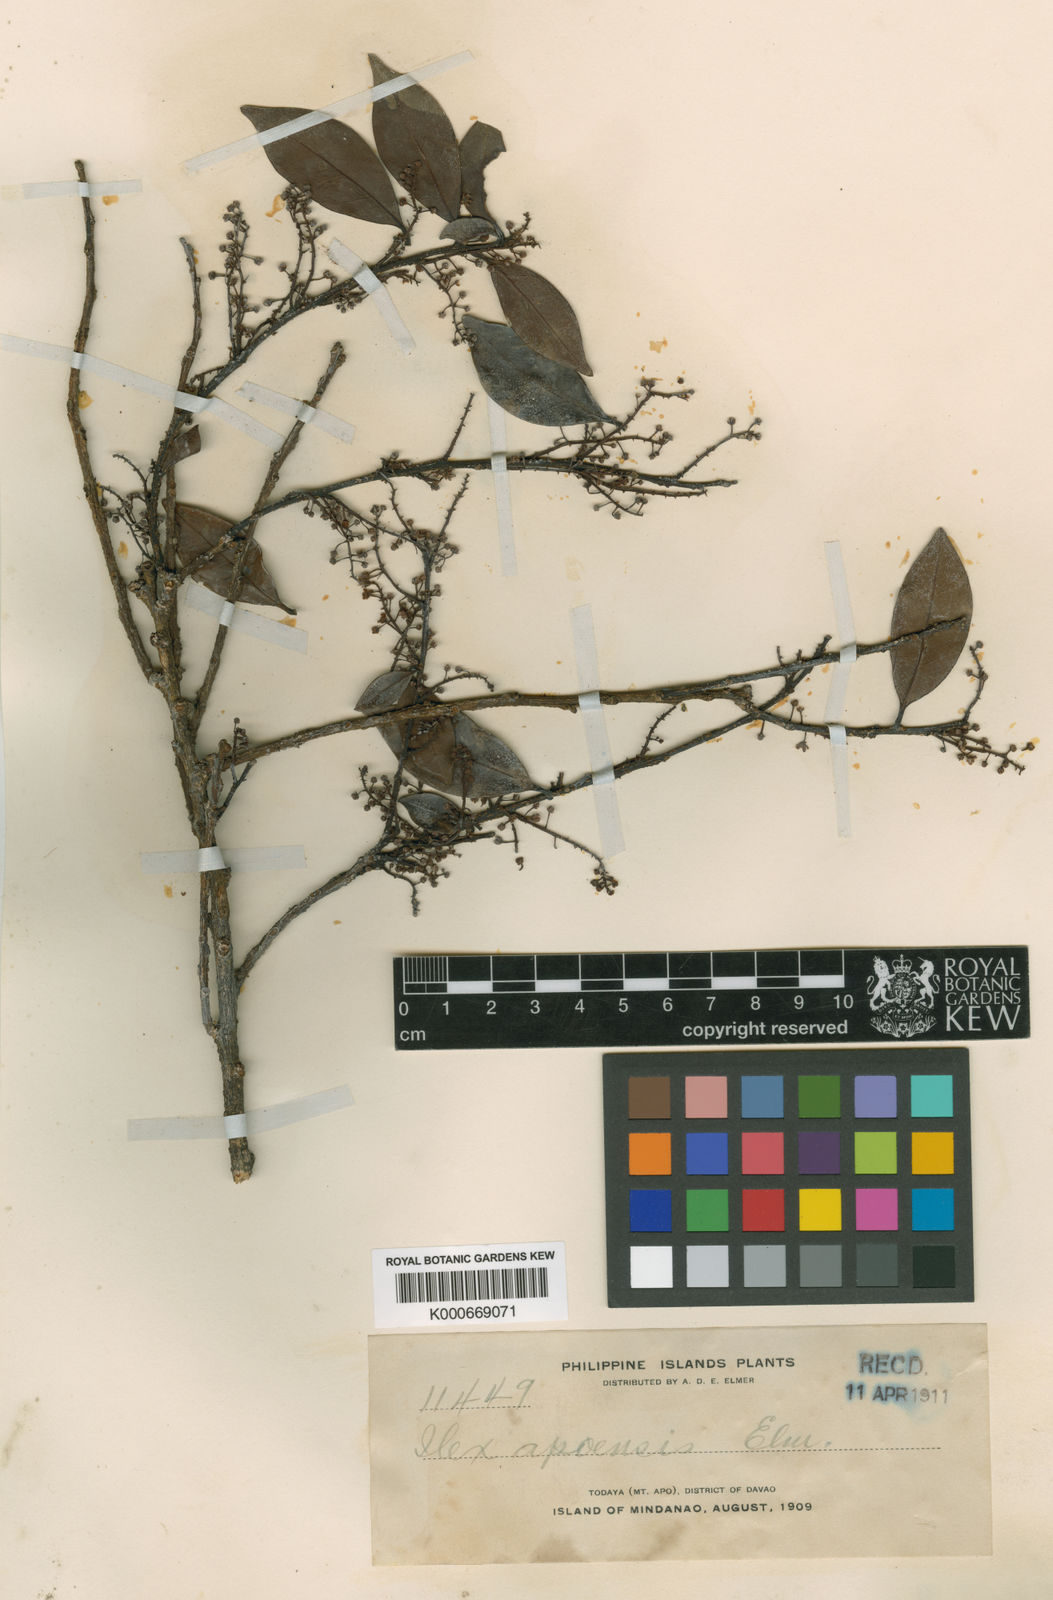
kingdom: Plantae
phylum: Tracheophyta
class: Magnoliopsida
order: Aquifoliales
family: Aquifoliaceae
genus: Ilex
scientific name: Ilex malaccensis
